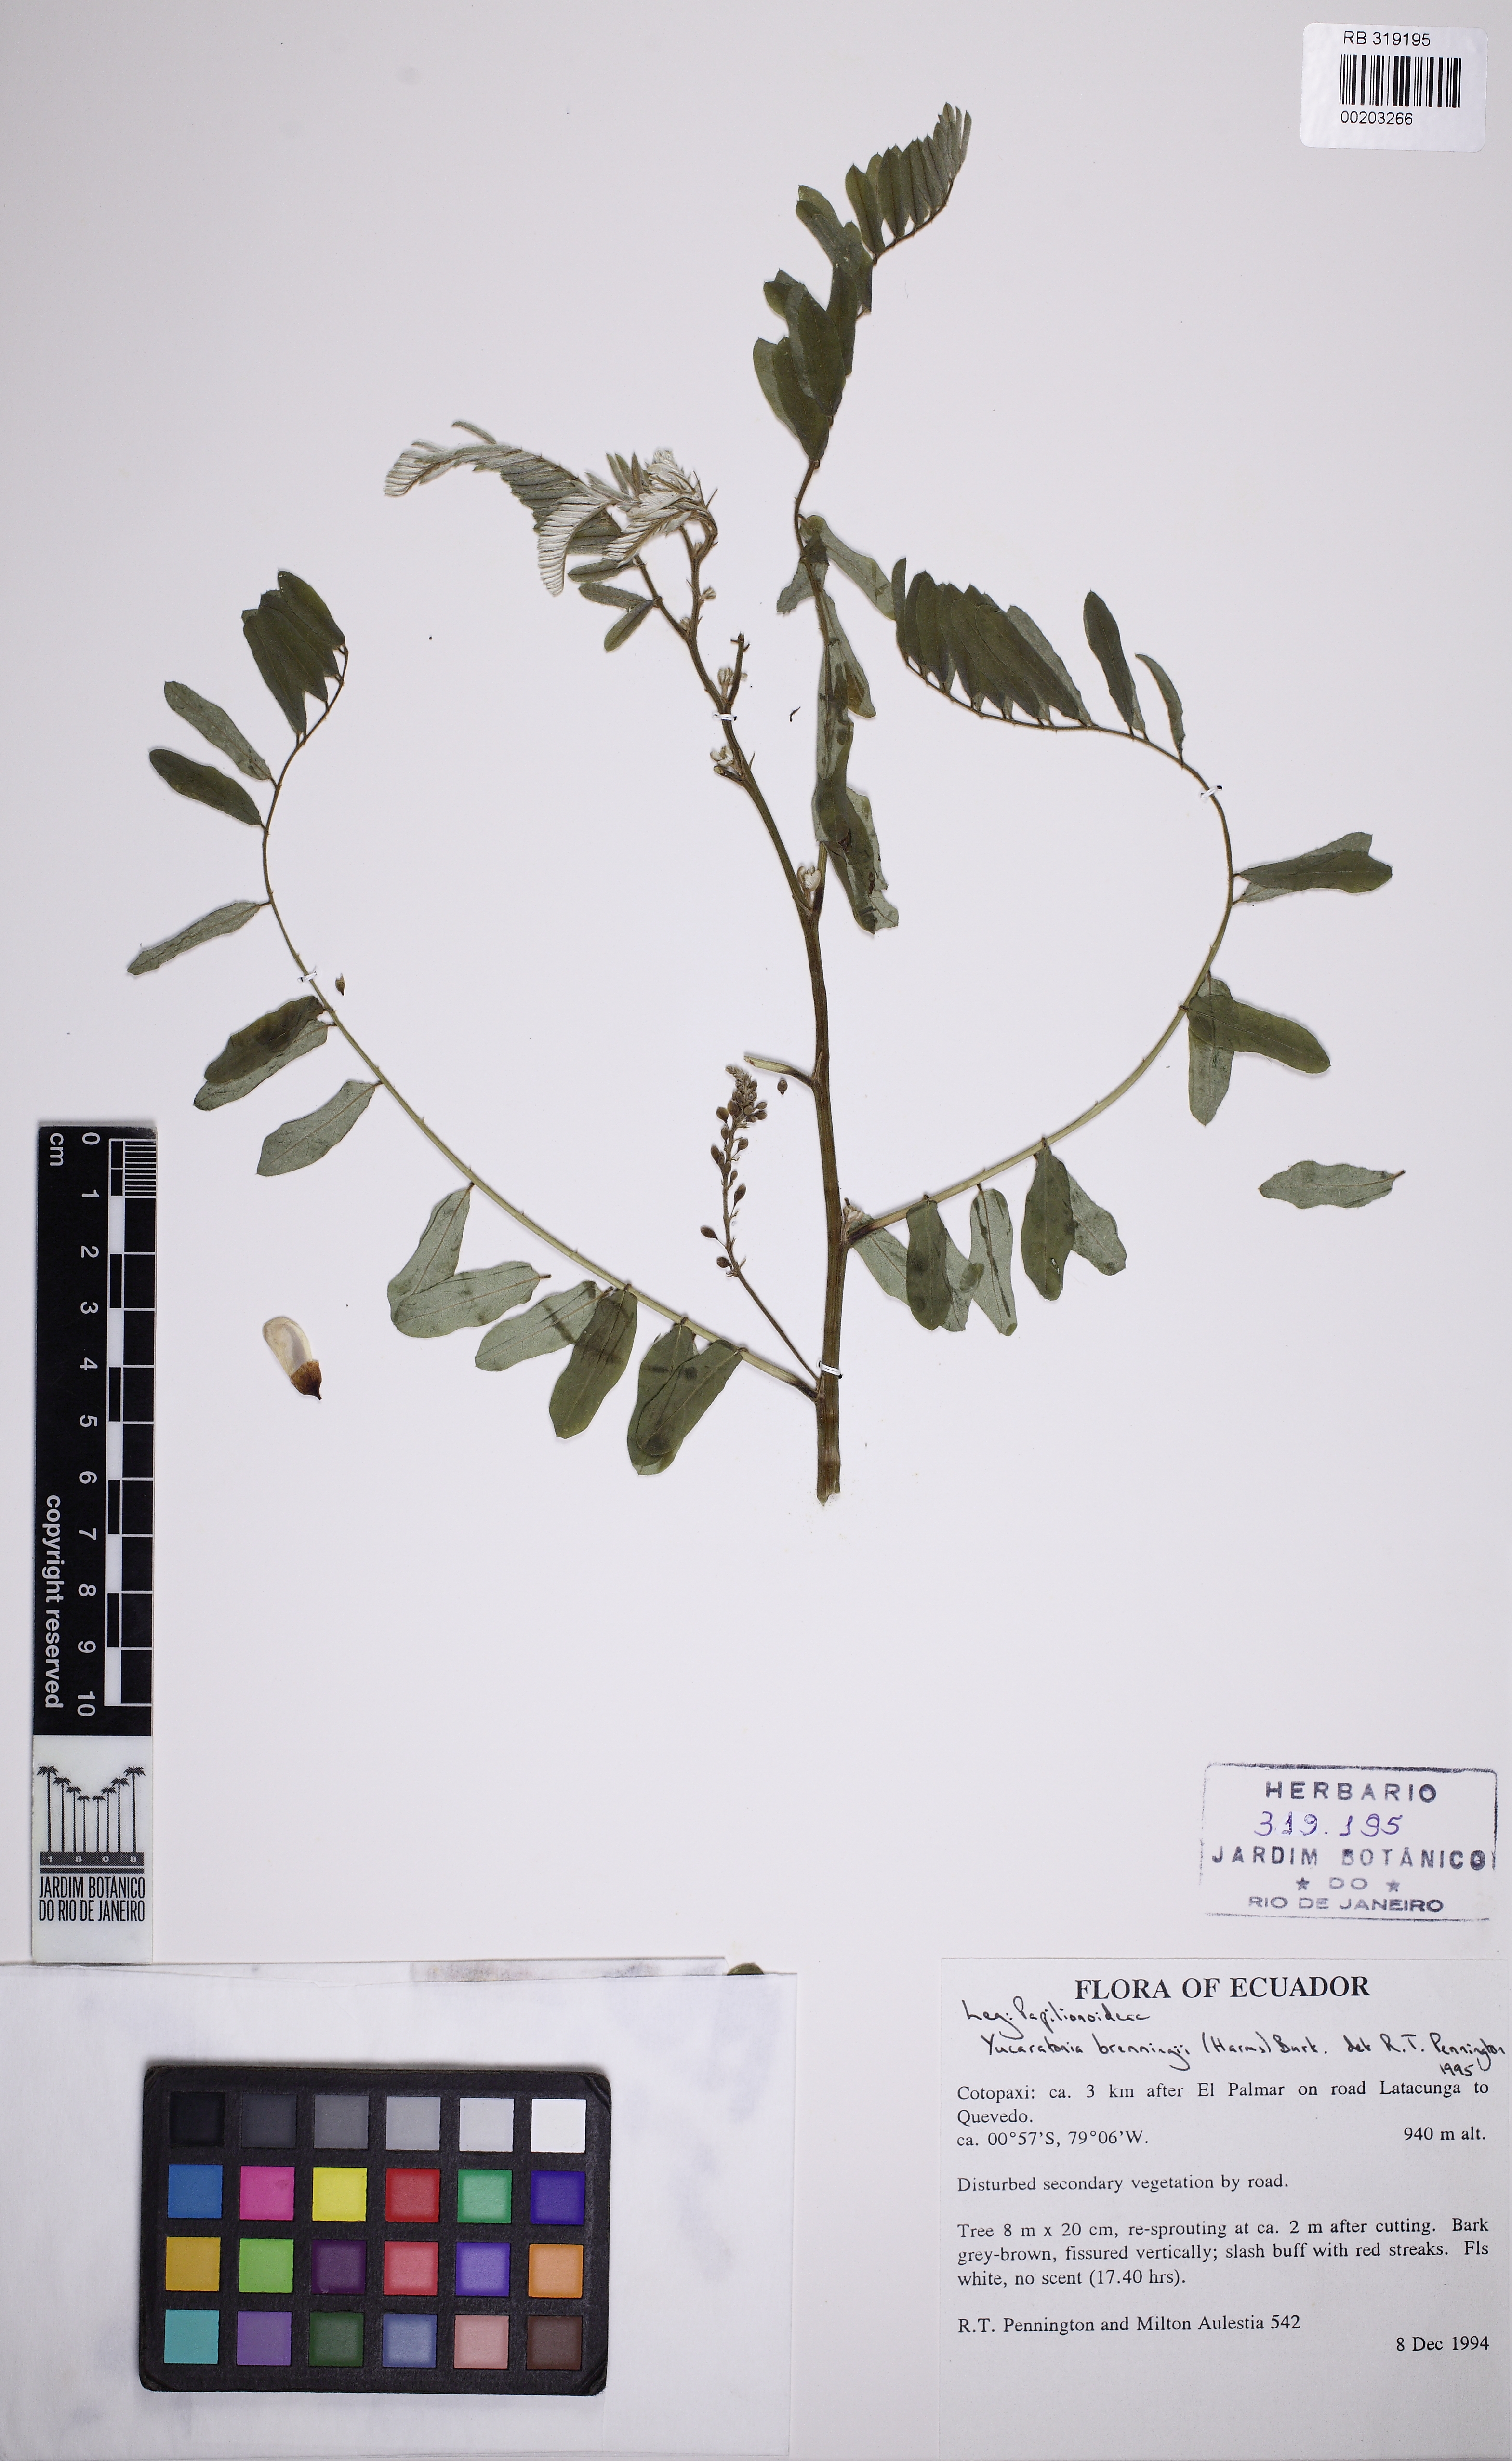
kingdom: Plantae
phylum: Tracheophyta
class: Magnoliopsida
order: Fabales
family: Fabaceae
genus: Gliricidia
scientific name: Gliricidia brenningii
